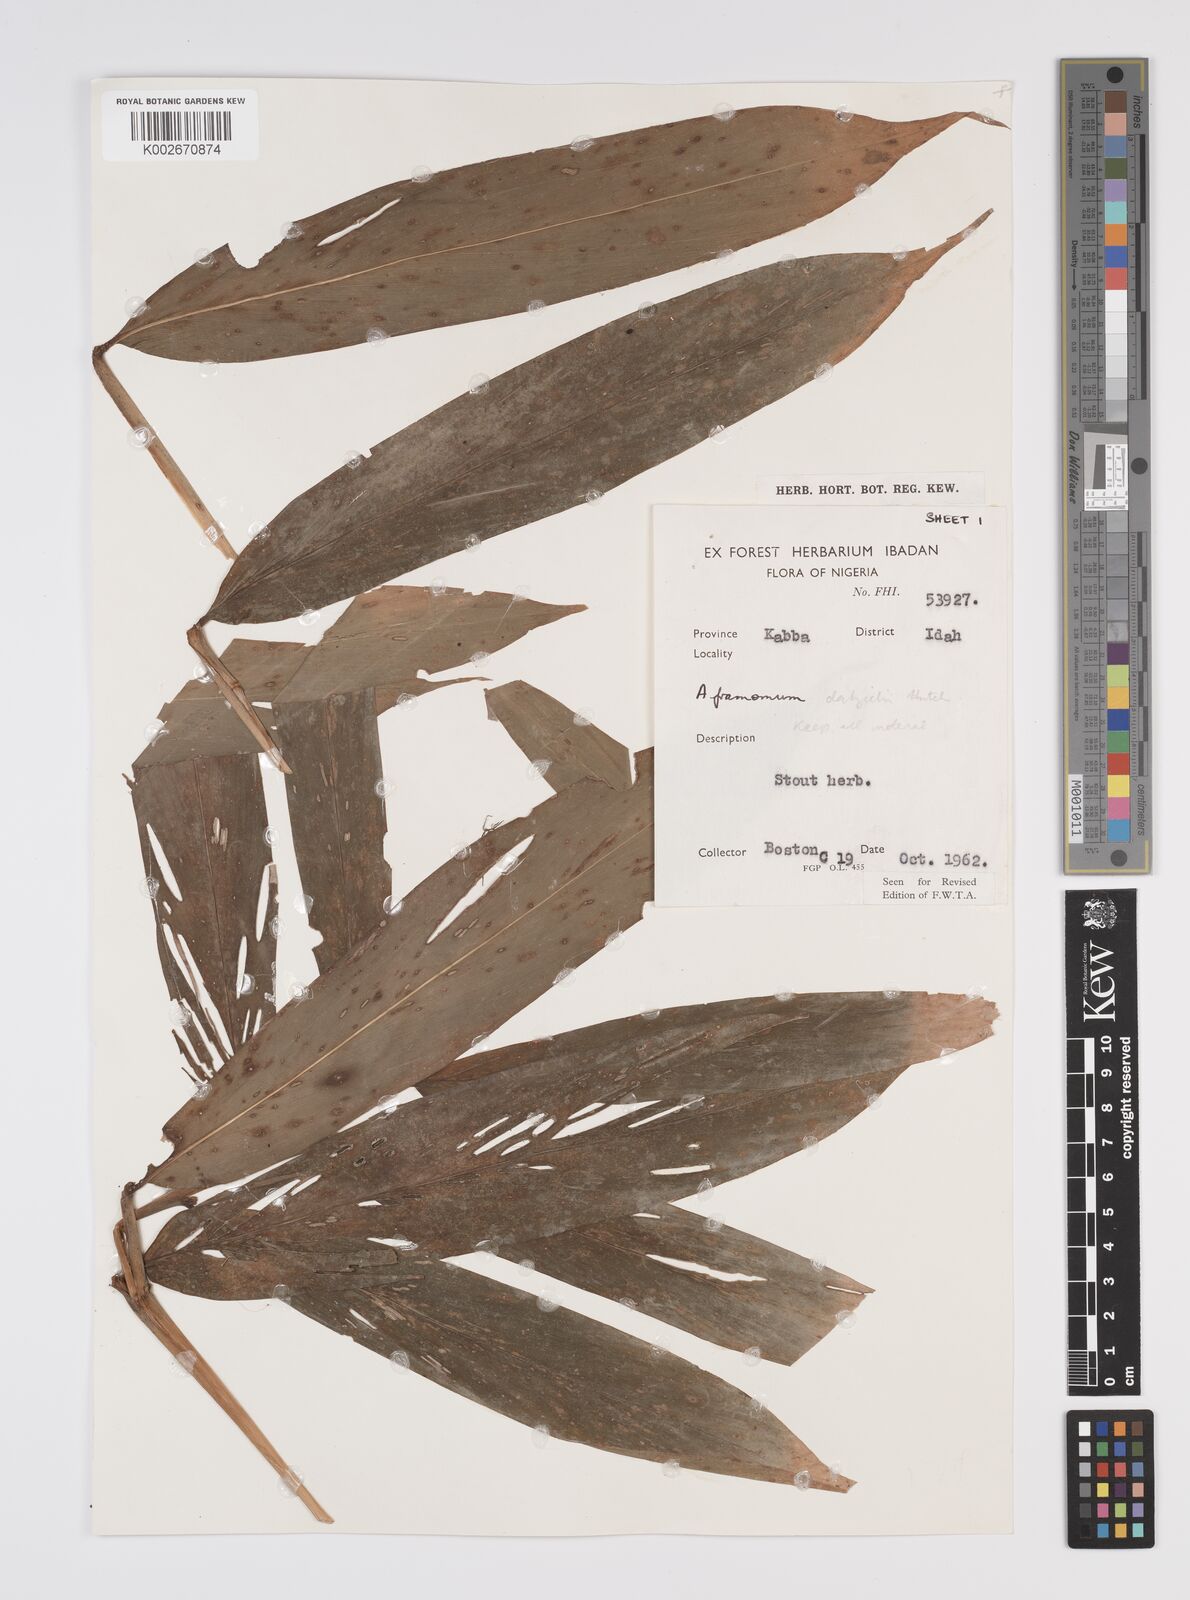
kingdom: Plantae
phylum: Tracheophyta
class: Liliopsida
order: Zingiberales
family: Zingiberaceae
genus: Aframomum
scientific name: Aframomum cereum
